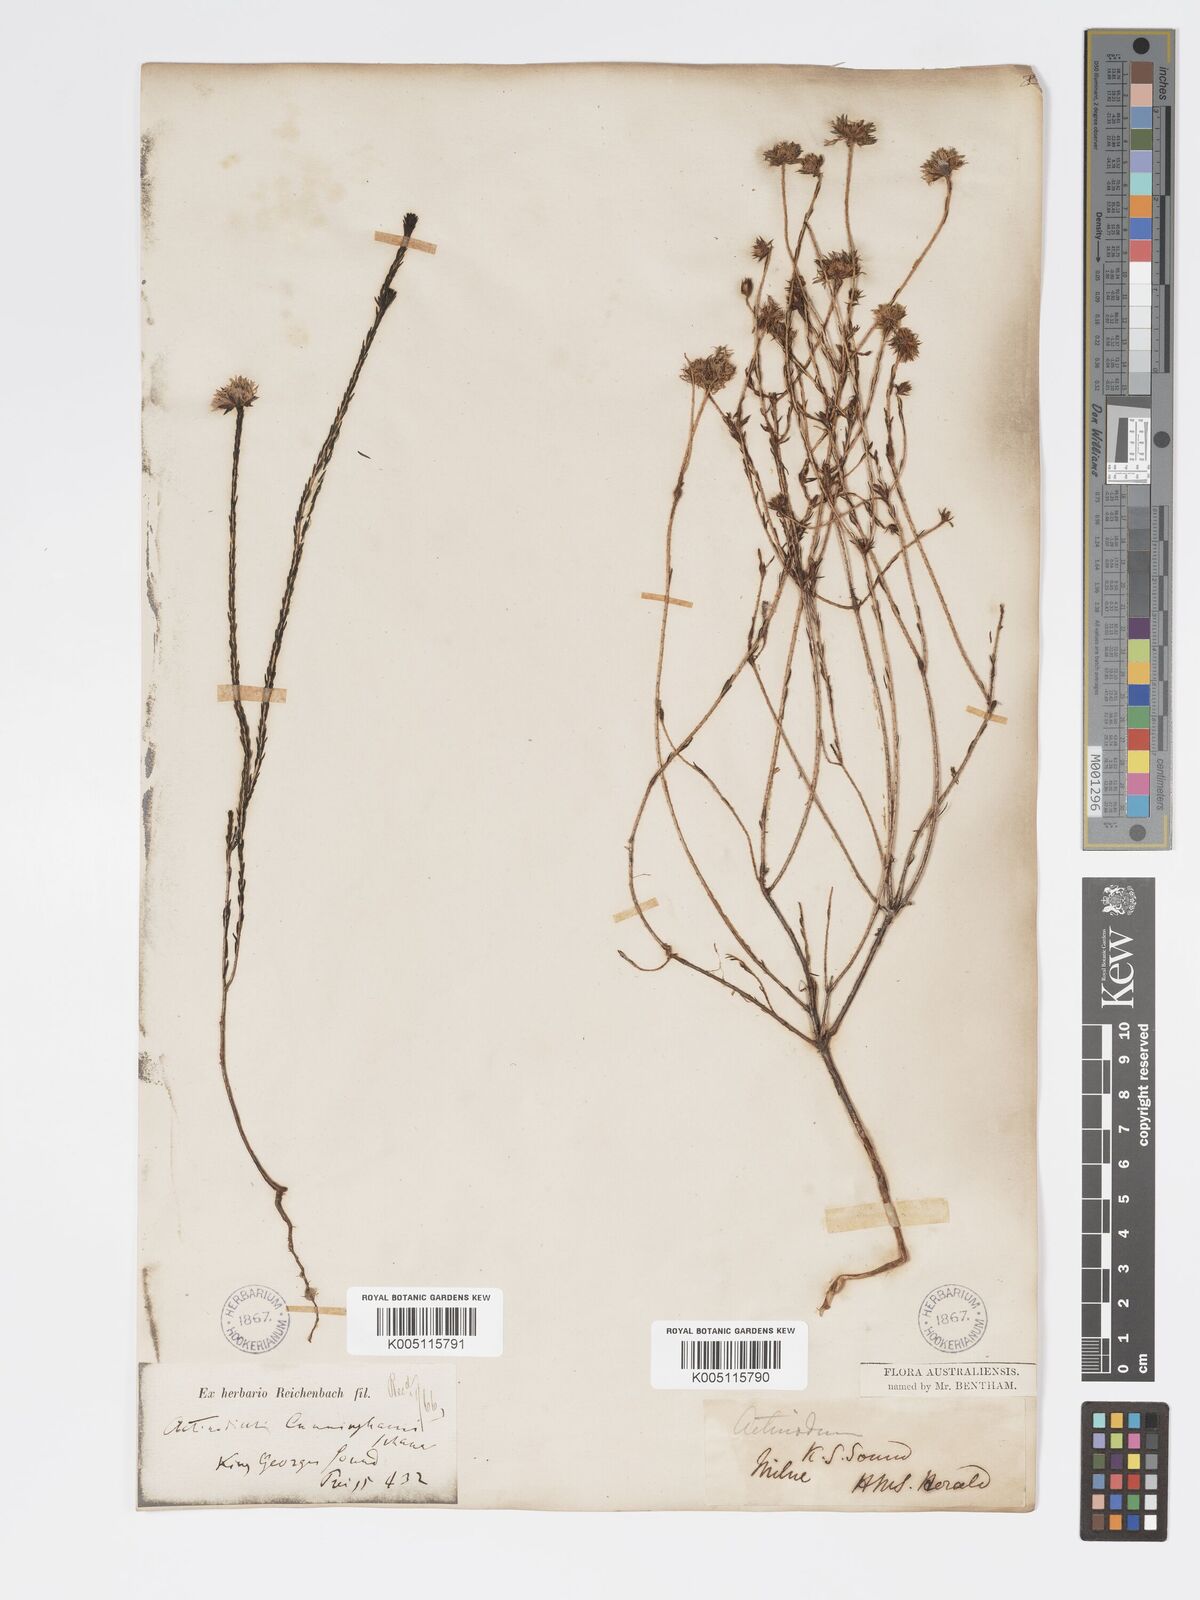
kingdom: Plantae
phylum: Tracheophyta
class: Magnoliopsida
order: Myrtales
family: Myrtaceae
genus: Actinodium
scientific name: Actinodium cunninghamii
